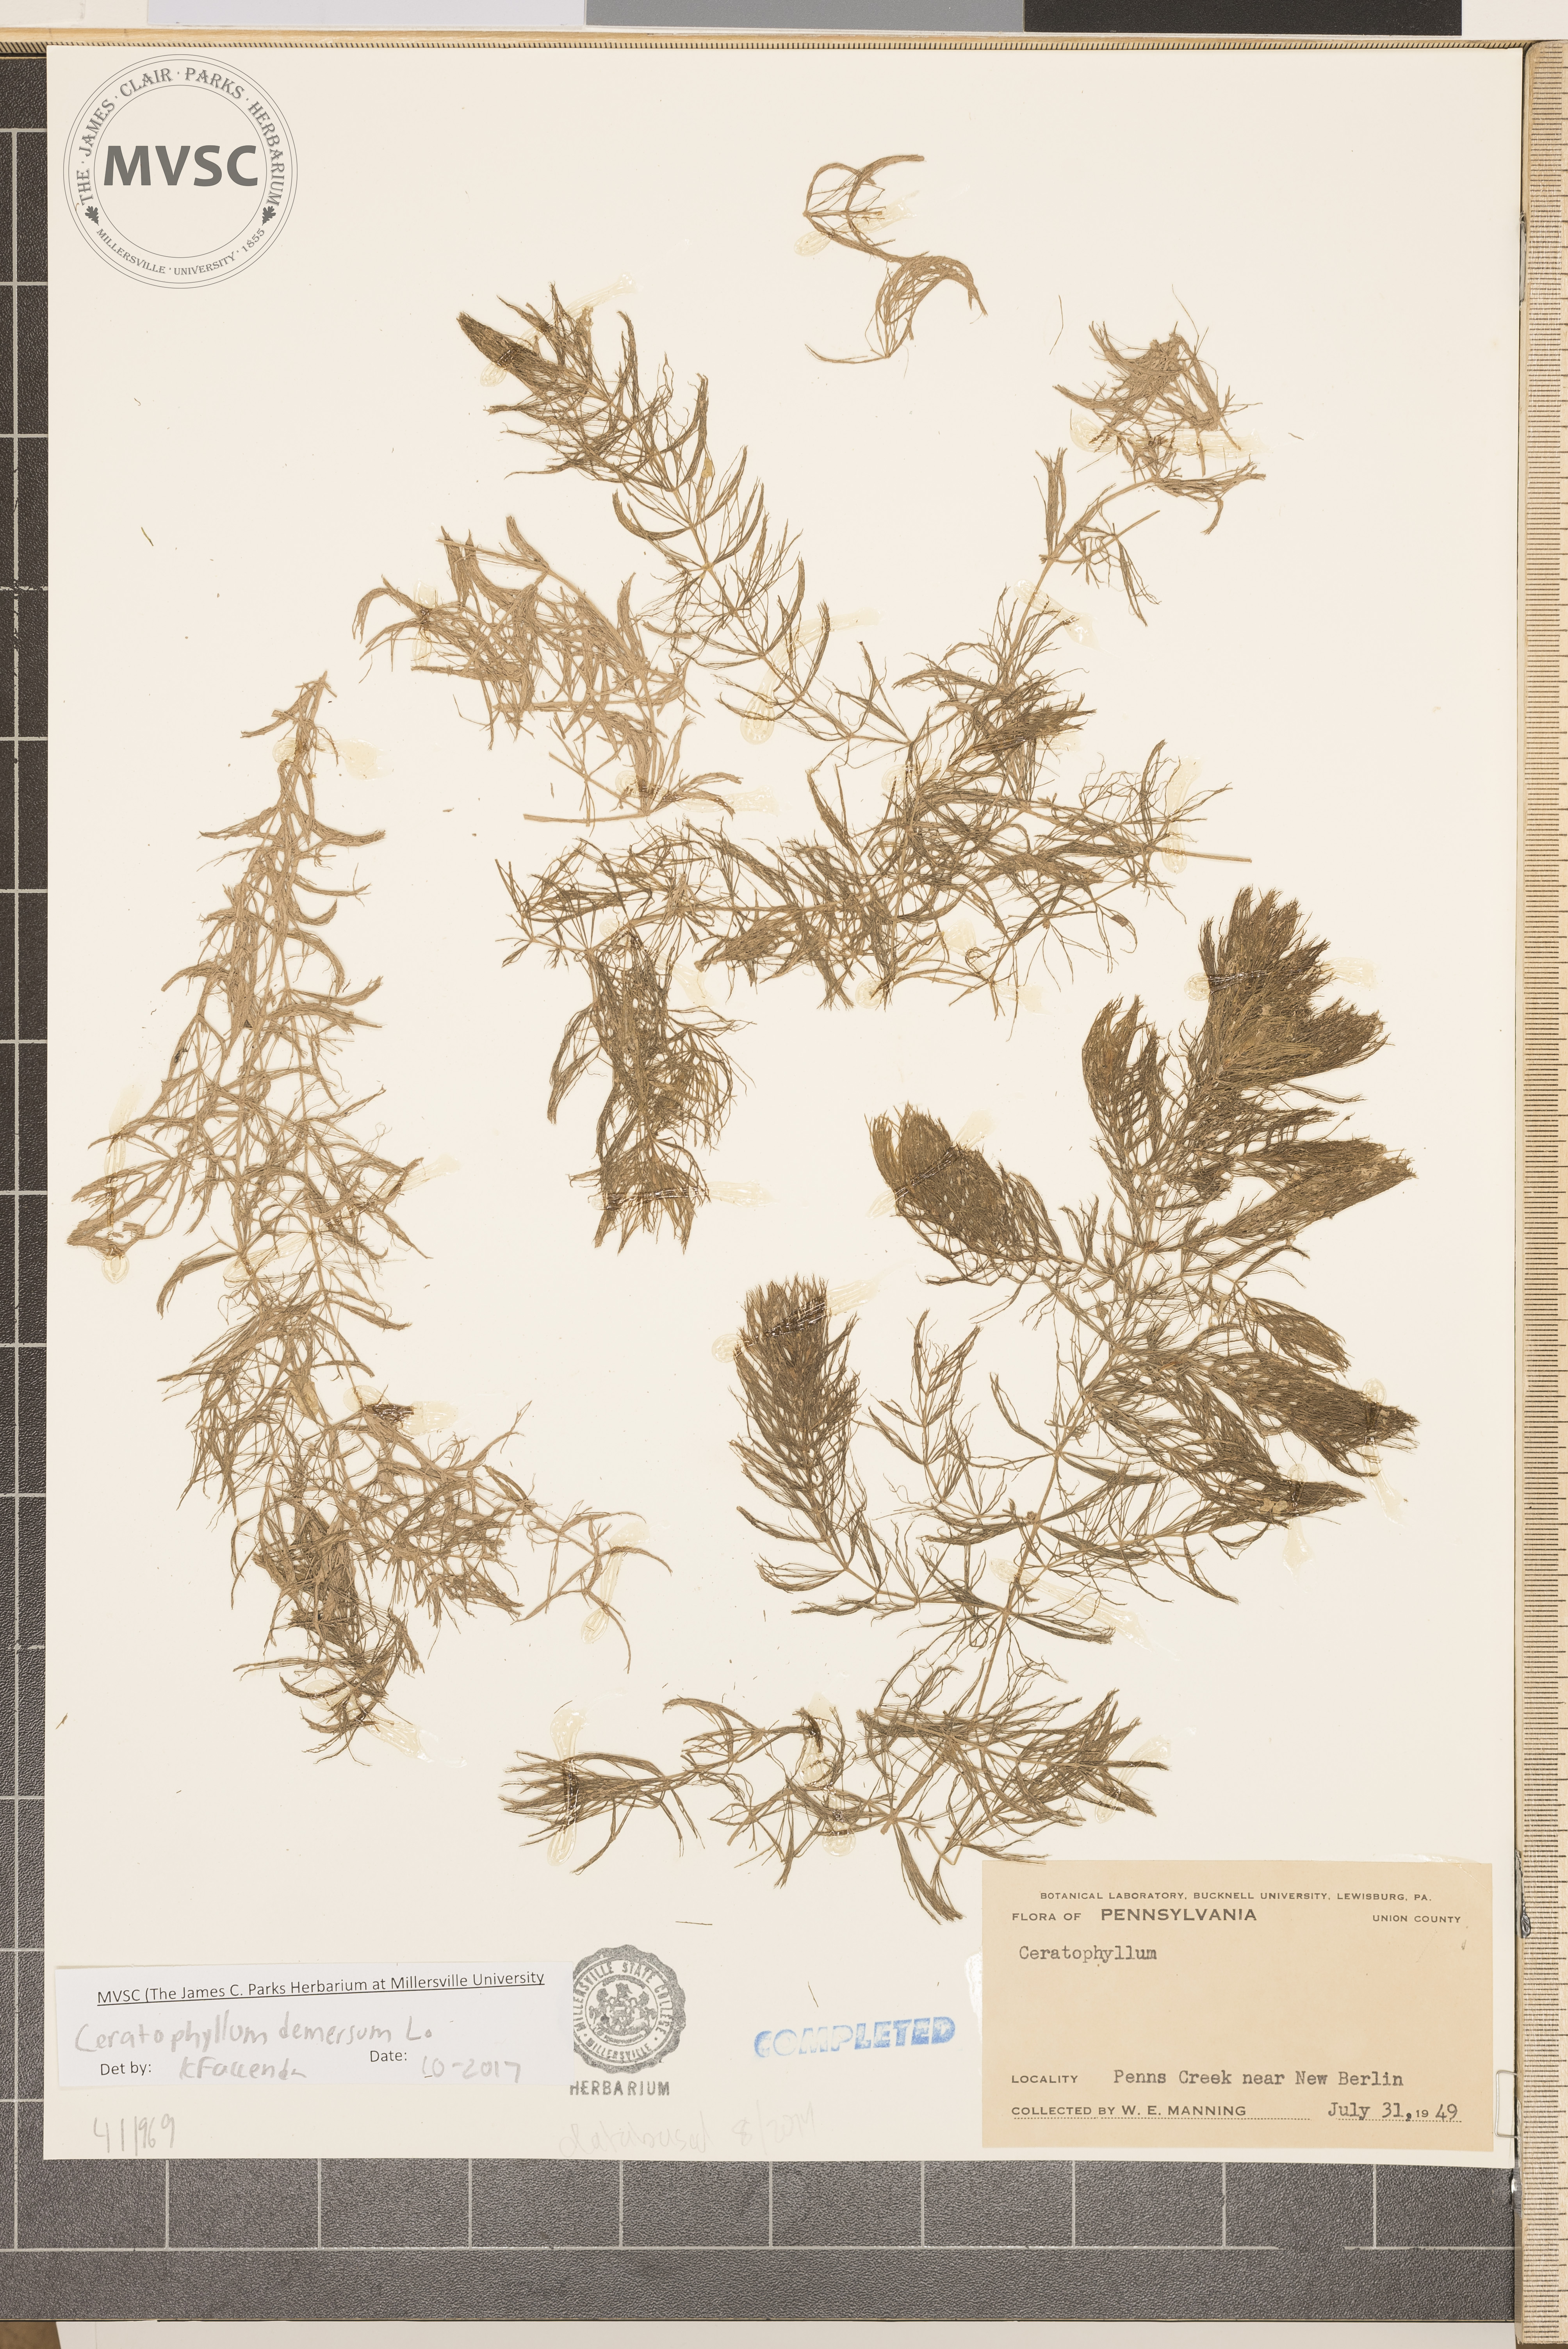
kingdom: Plantae
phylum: Tracheophyta
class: Magnoliopsida
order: Ceratophyllales
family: Ceratophyllaceae
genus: Ceratophyllum
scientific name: Ceratophyllum demersum
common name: Coontail
